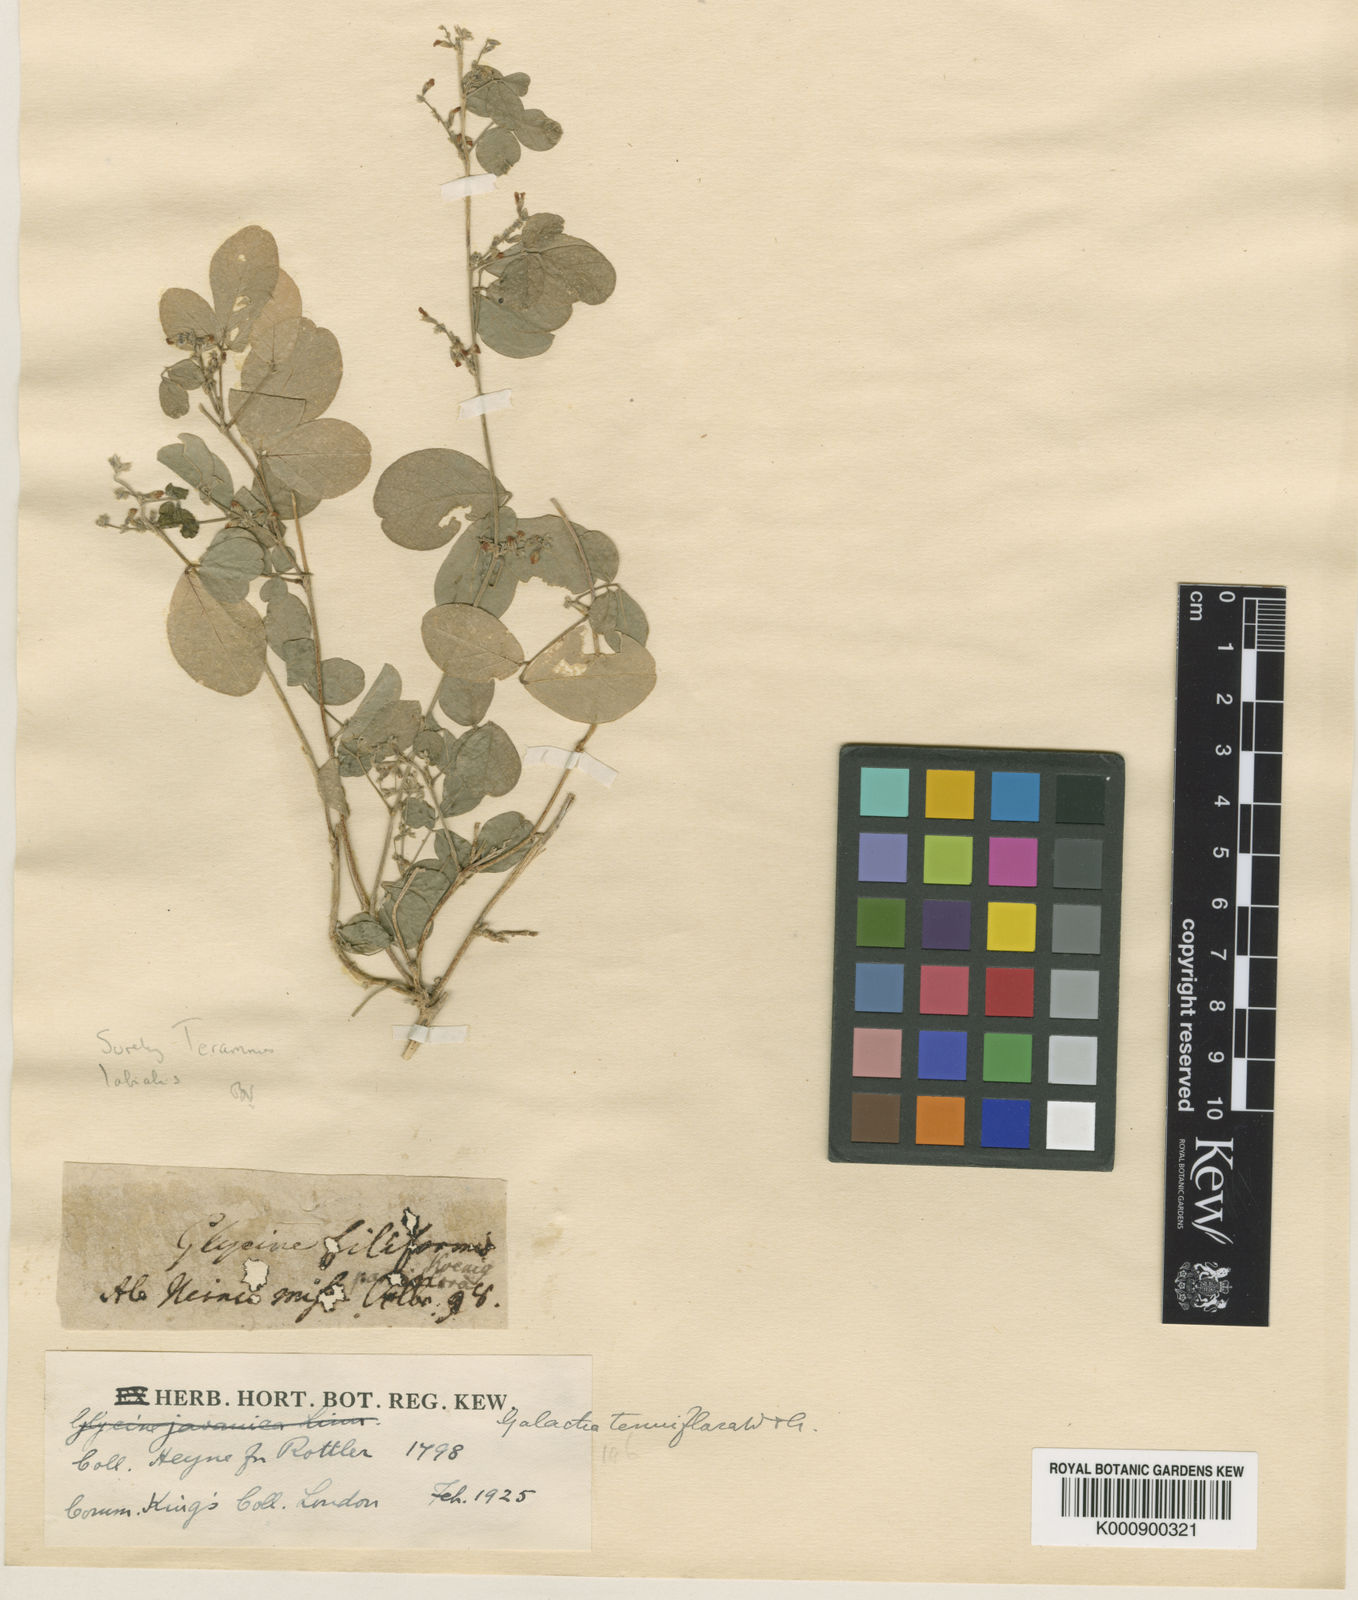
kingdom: Plantae
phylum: Tracheophyta
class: Magnoliopsida
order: Fabales
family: Fabaceae
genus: Galactia
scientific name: Galactia striata
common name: Florida hammock milkpea
